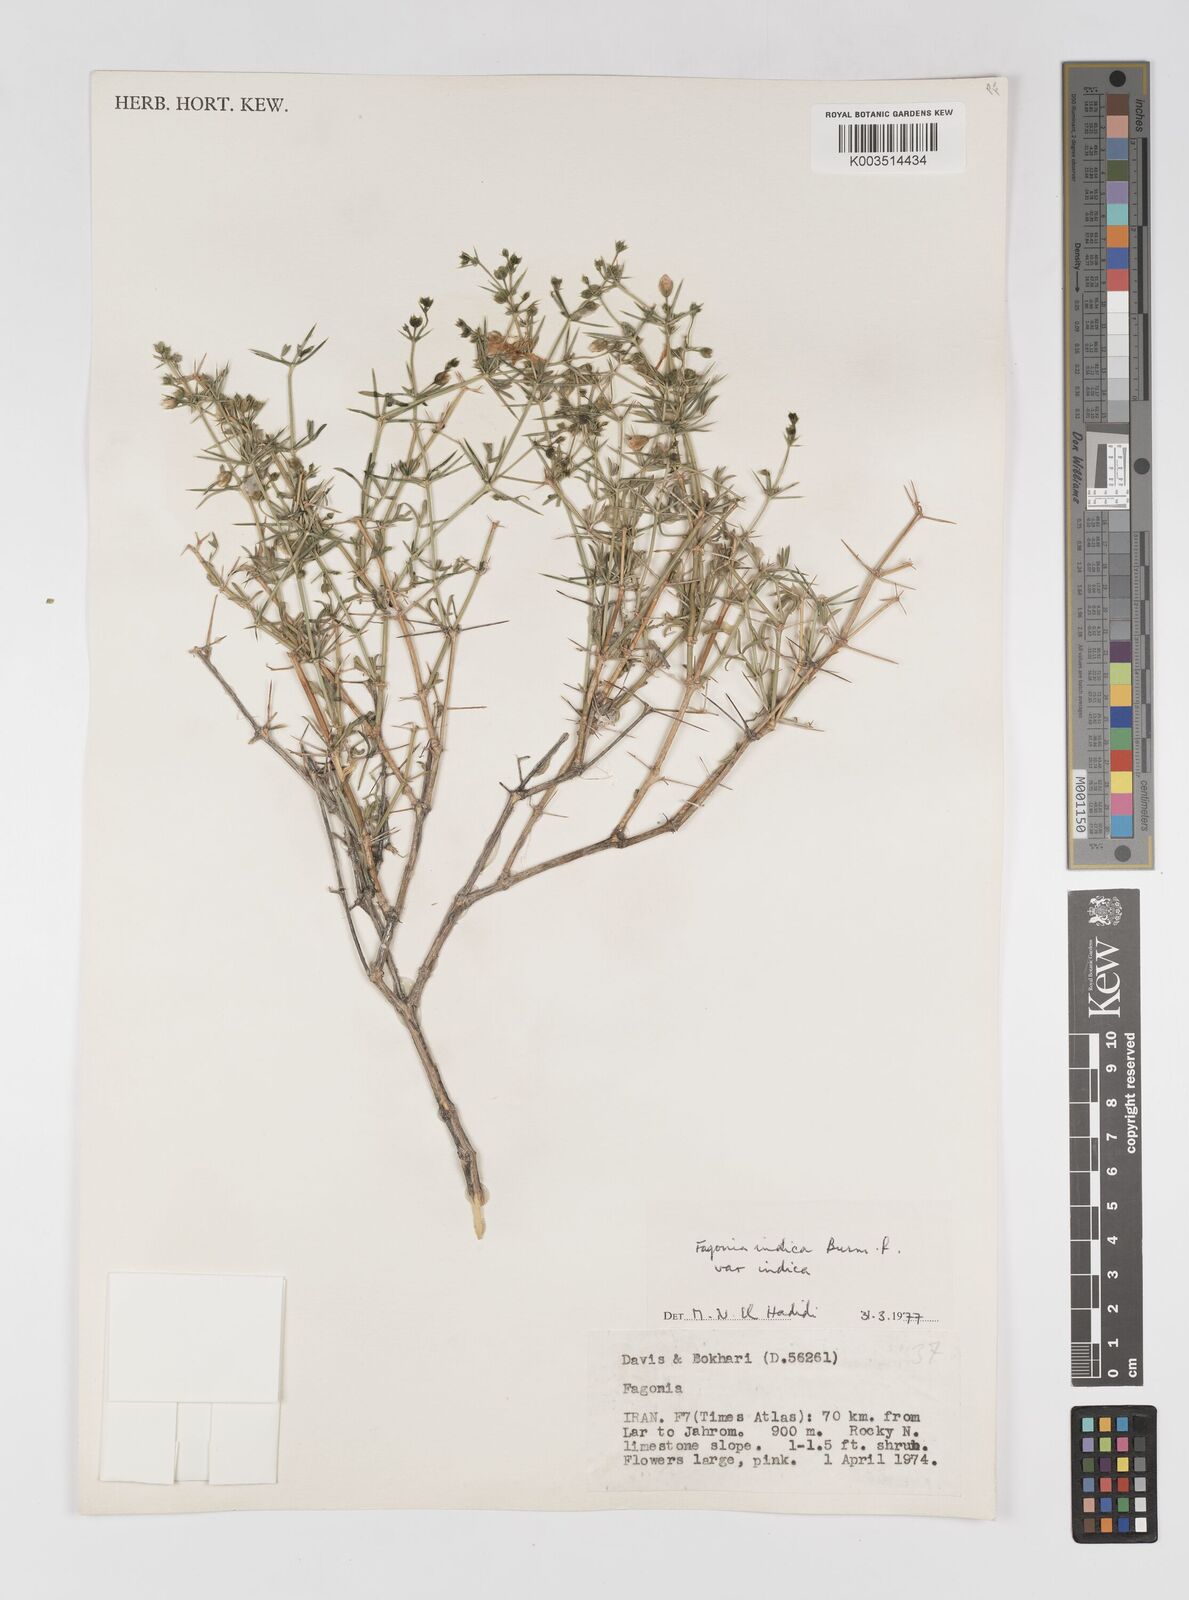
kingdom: Plantae
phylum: Tracheophyta
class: Magnoliopsida
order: Zygophyllales
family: Zygophyllaceae
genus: Fagonia
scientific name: Fagonia indica
